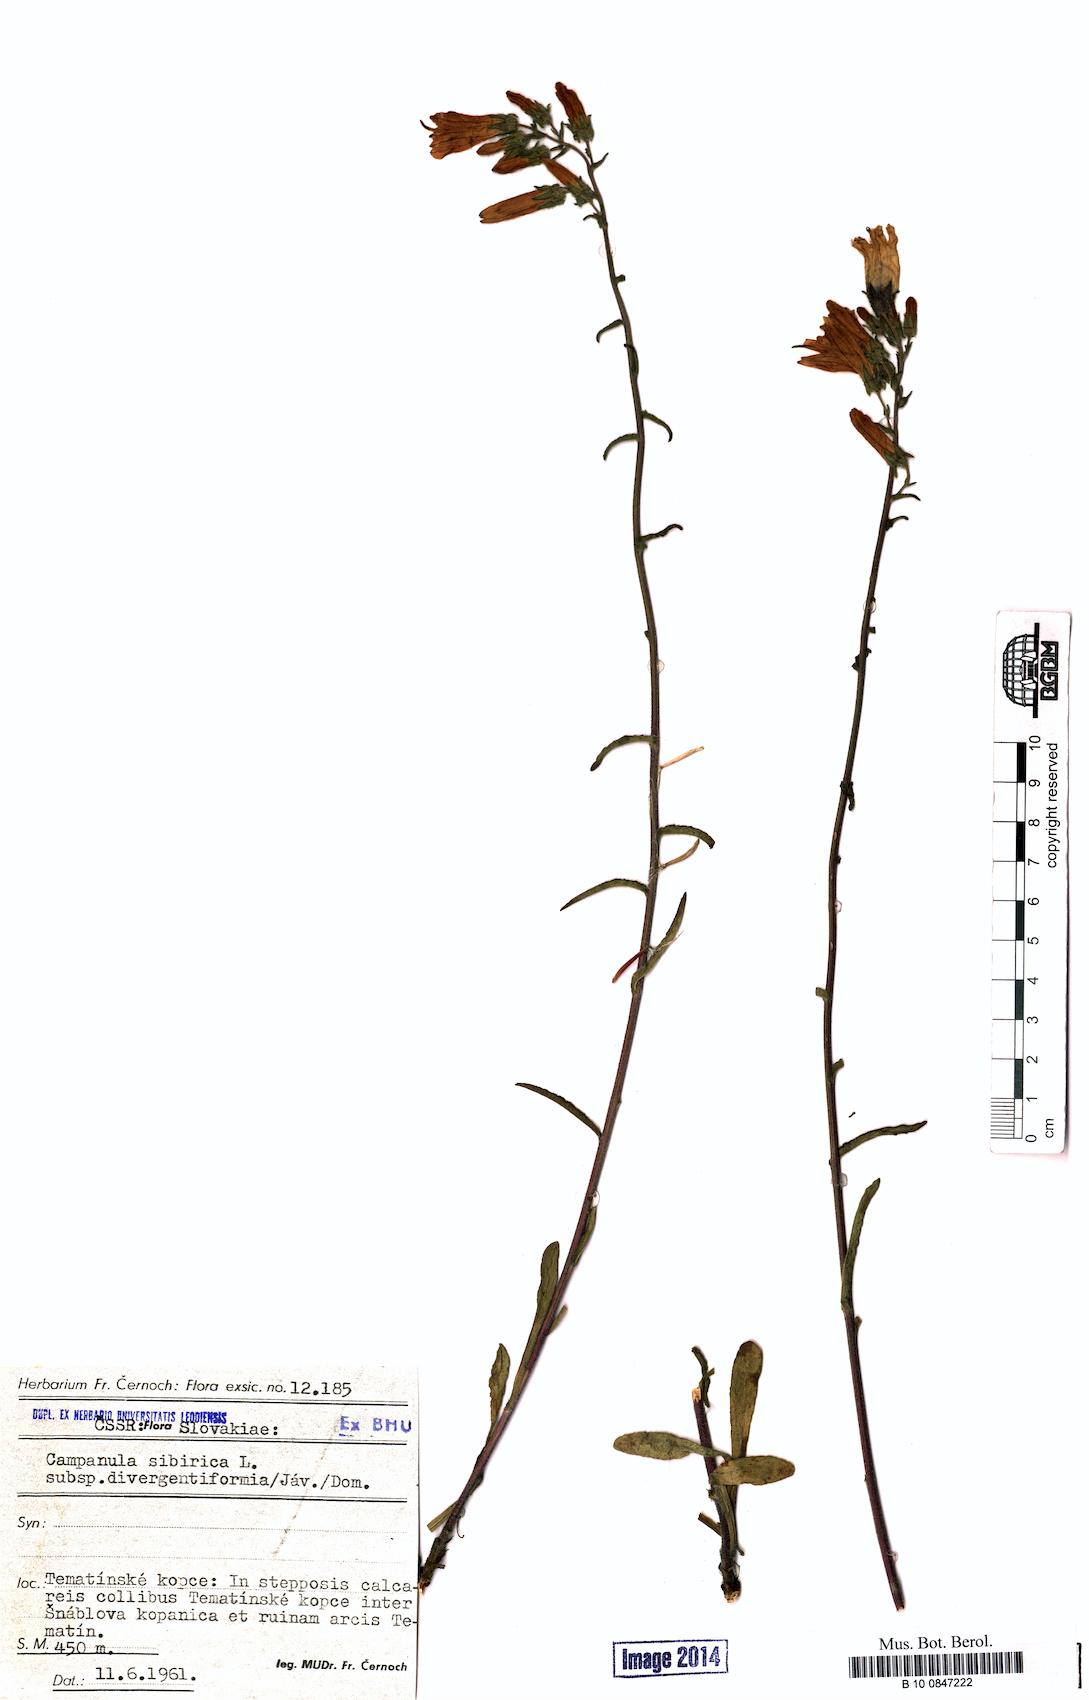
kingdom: Plantae
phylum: Tracheophyta
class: Magnoliopsida
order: Asterales
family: Campanulaceae
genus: Campanula
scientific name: Campanula sibirica
